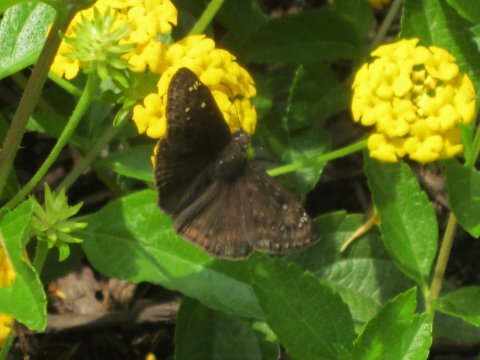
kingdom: Animalia
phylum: Arthropoda
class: Insecta
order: Lepidoptera
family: Hesperiidae
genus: Gesta
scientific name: Gesta
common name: Horace's Duskywing
